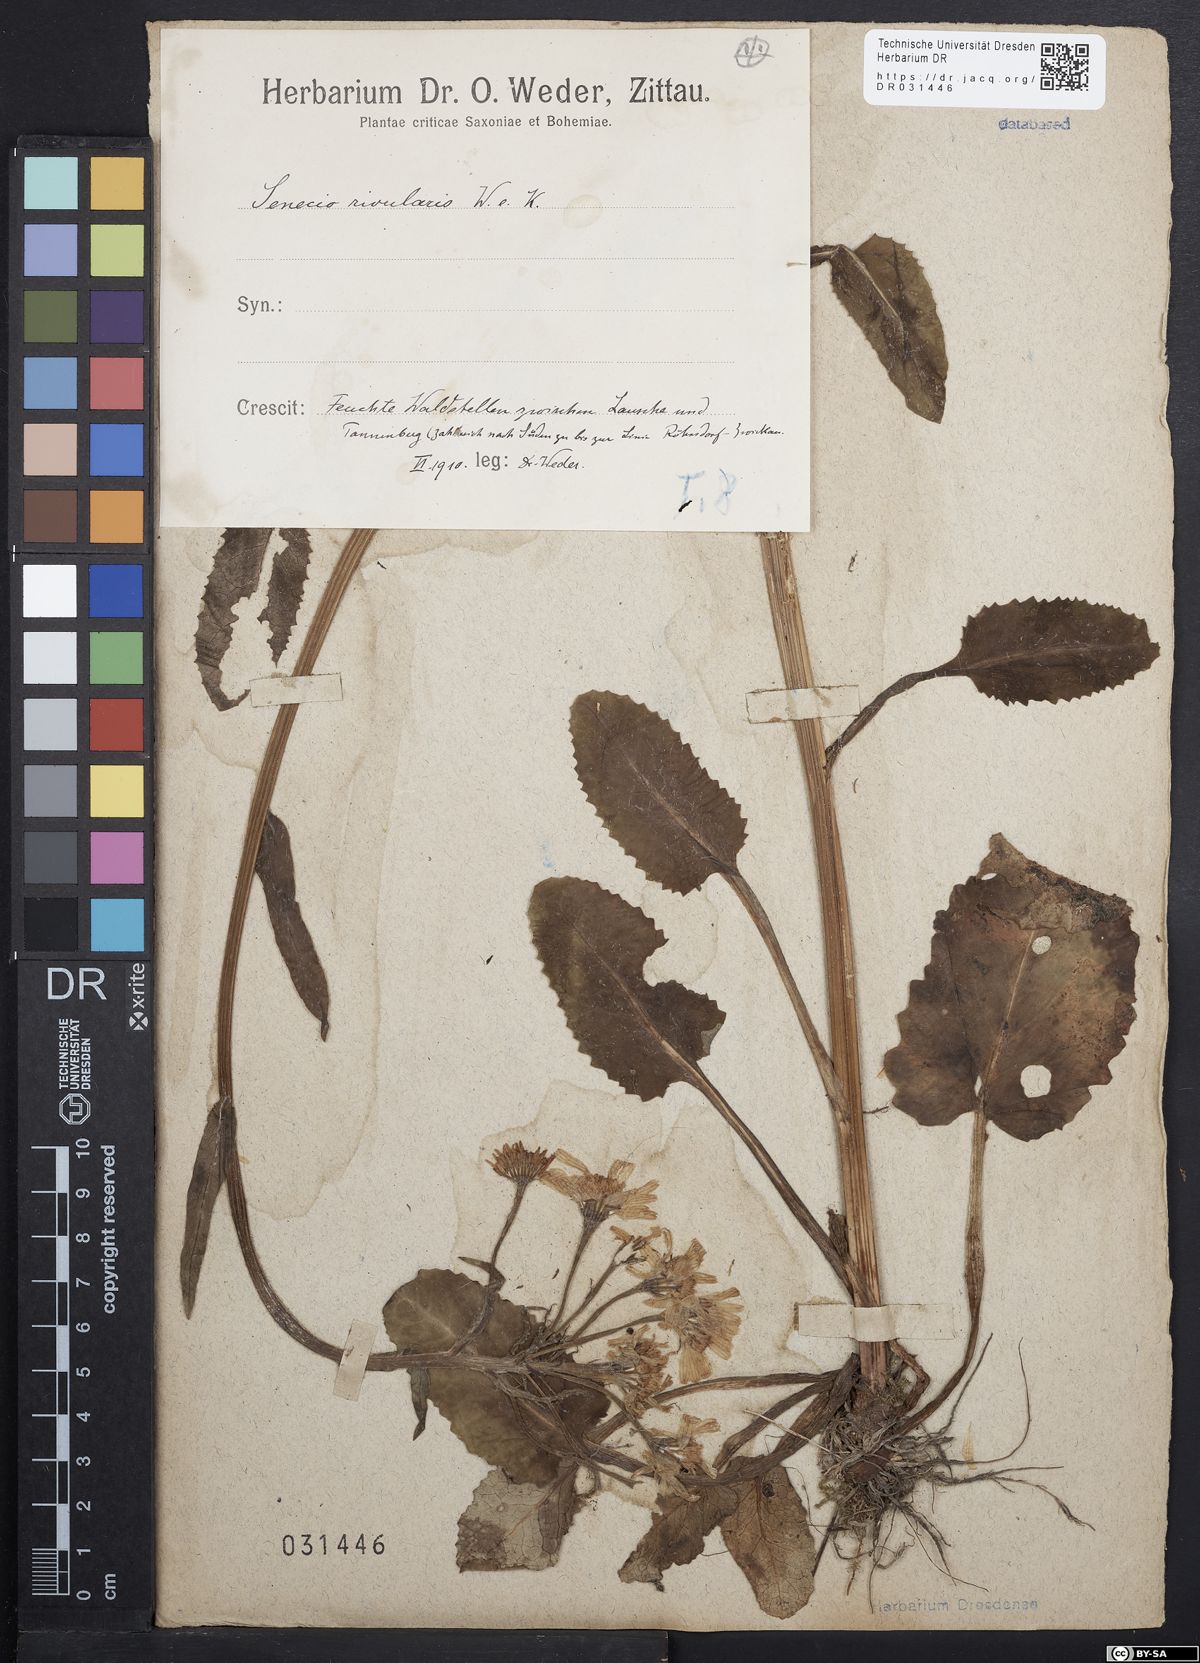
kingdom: Plantae
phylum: Tracheophyta
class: Magnoliopsida
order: Asterales
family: Asteraceae
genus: Tephroseris
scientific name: Tephroseris crispa
